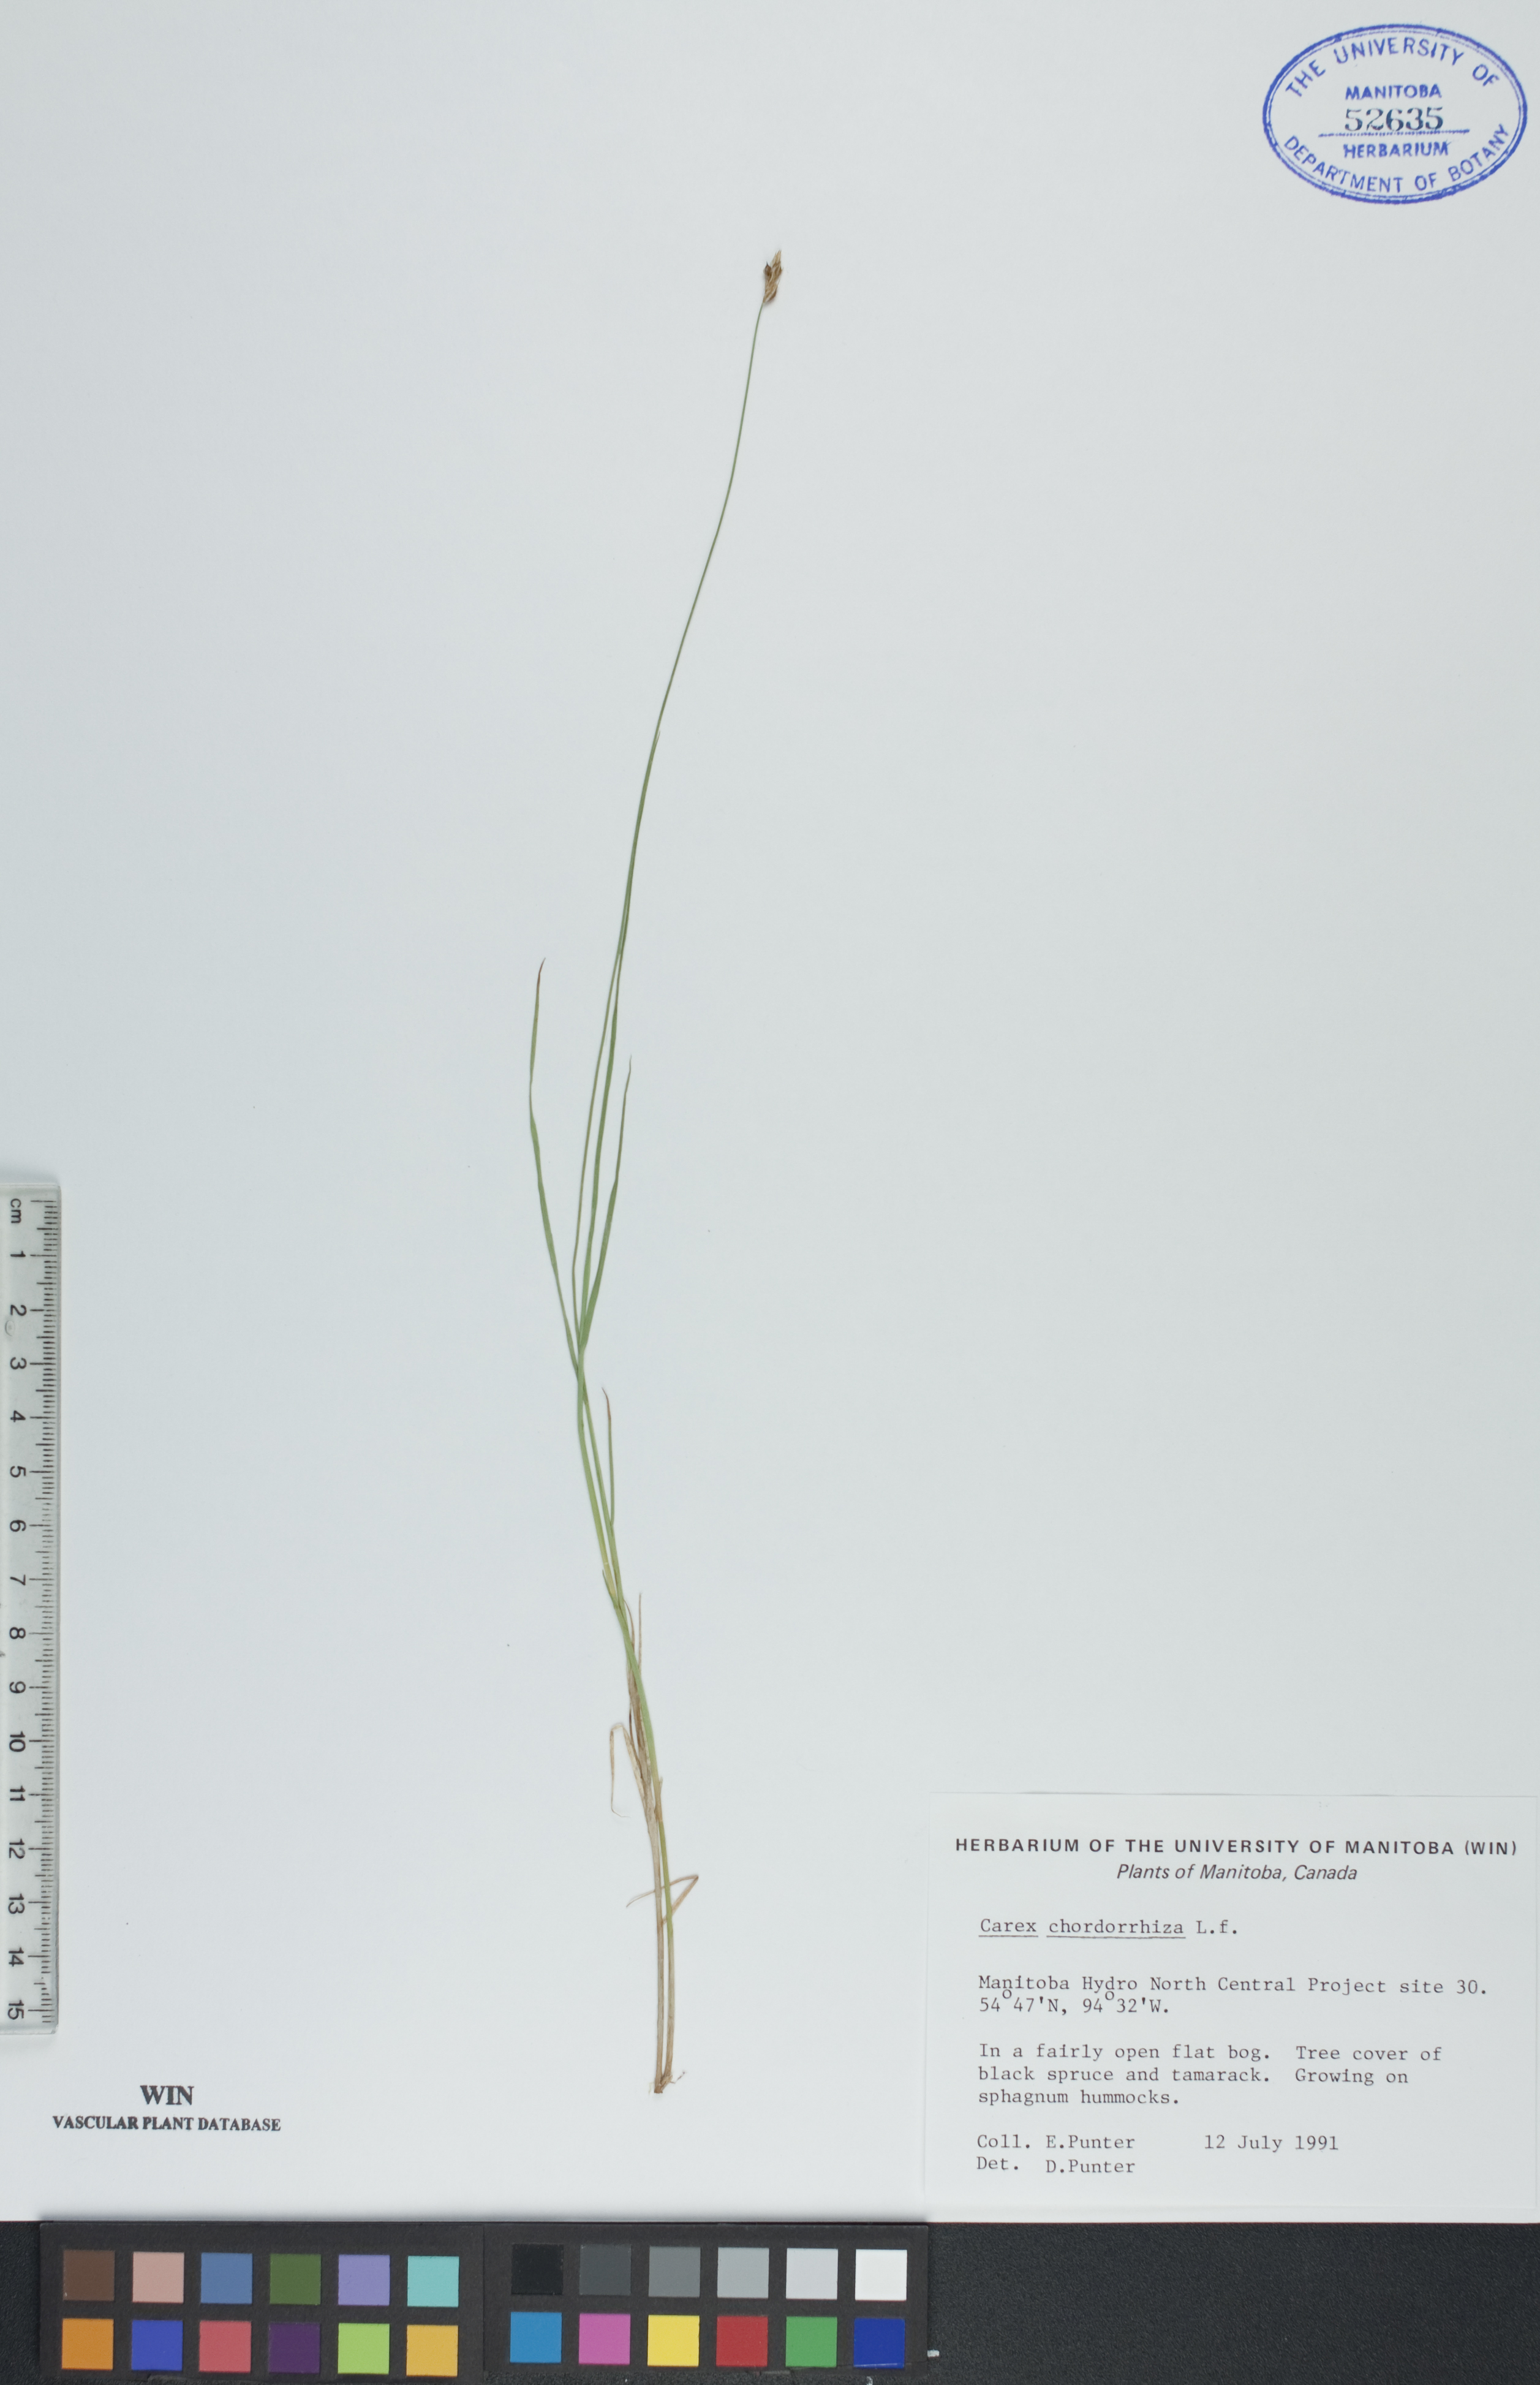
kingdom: Plantae
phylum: Tracheophyta
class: Liliopsida
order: Poales
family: Cyperaceae
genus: Carex
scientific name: Carex chordorrhiza
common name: String sedge
